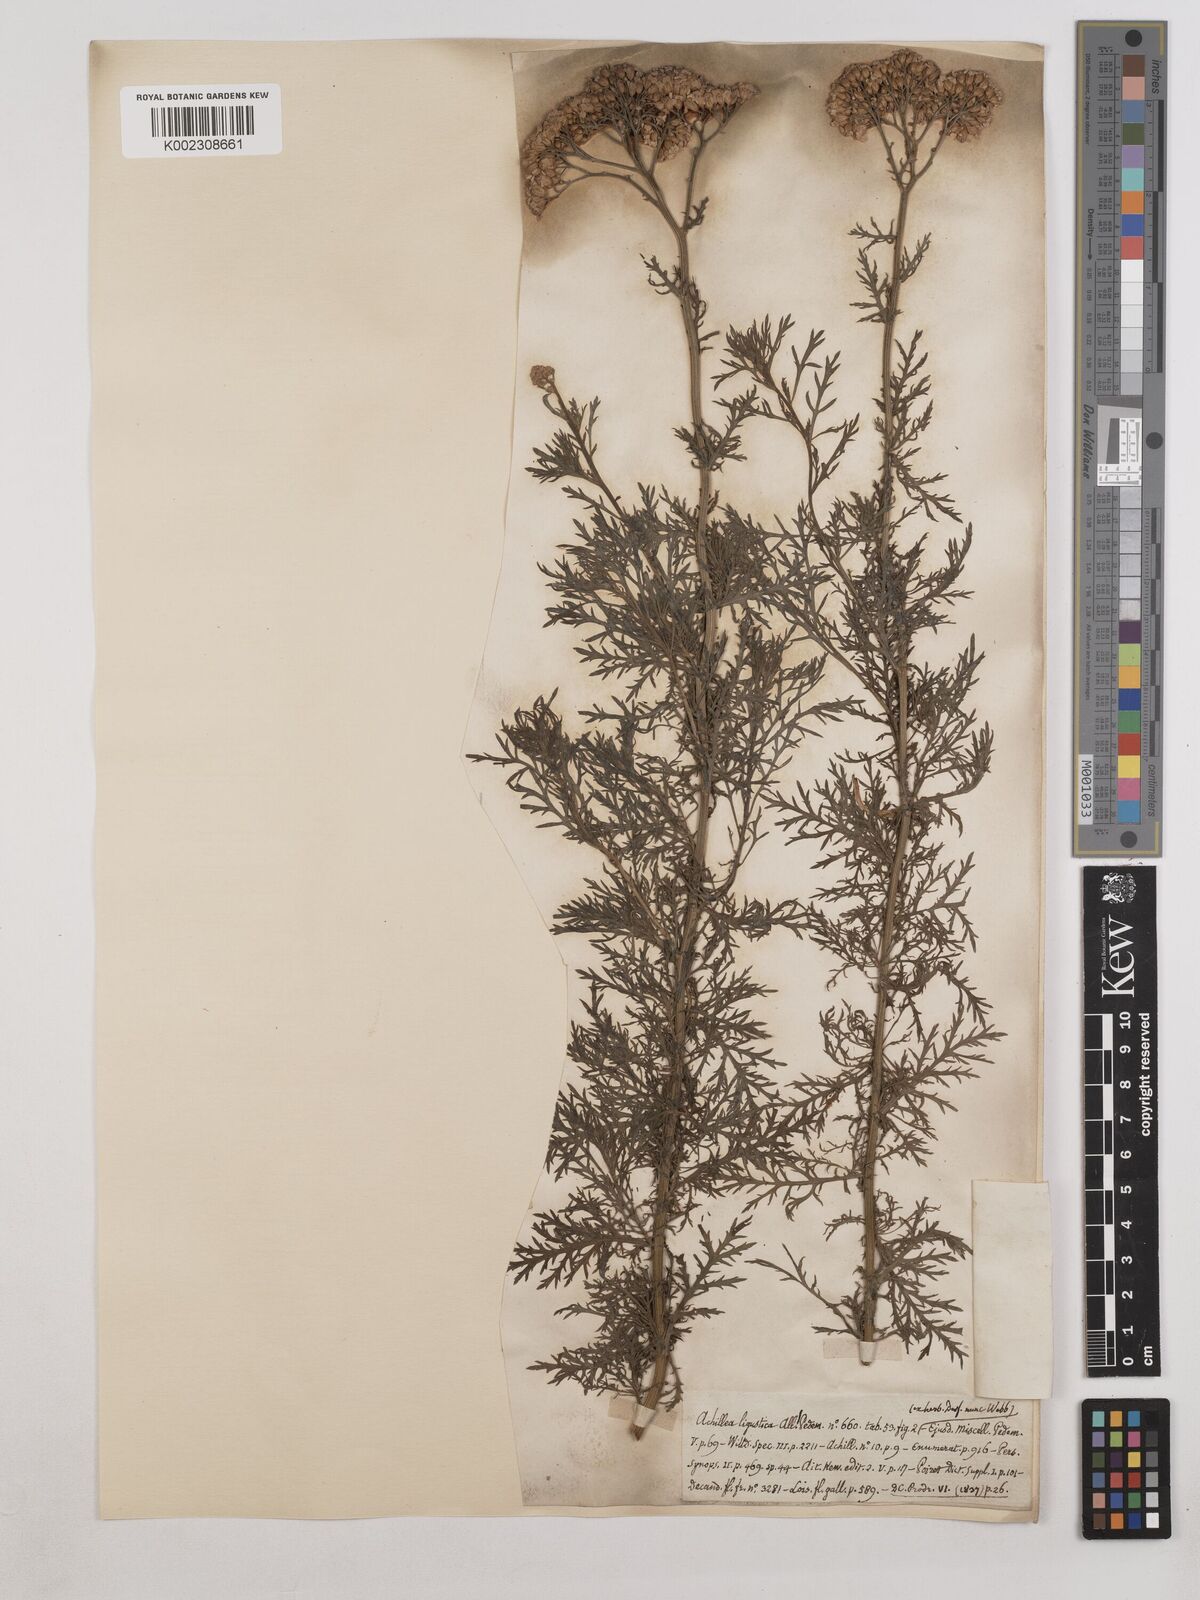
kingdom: Plantae
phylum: Tracheophyta
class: Magnoliopsida
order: Asterales
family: Asteraceae
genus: Achillea
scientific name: Achillea ligustica
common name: Southern yarrow
